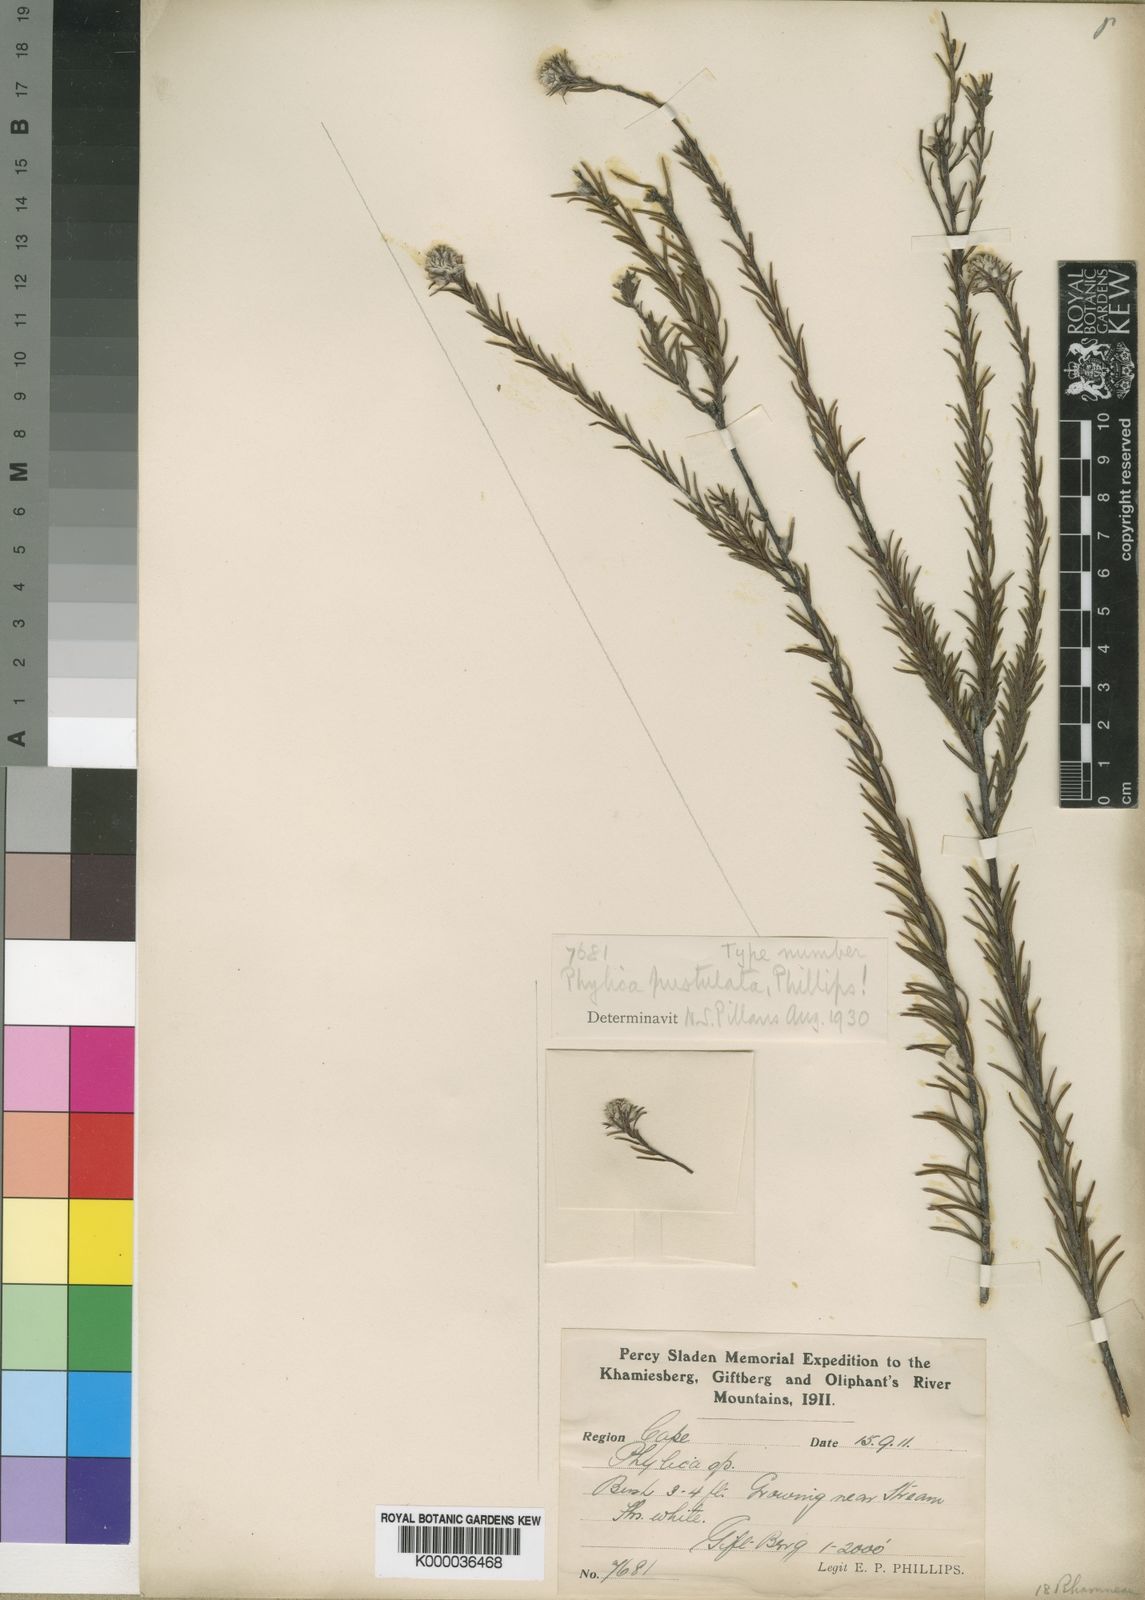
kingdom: Plantae
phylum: Tracheophyta
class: Magnoliopsida
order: Rosales
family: Rhamnaceae
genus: Phylica
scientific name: Phylica pustulata
